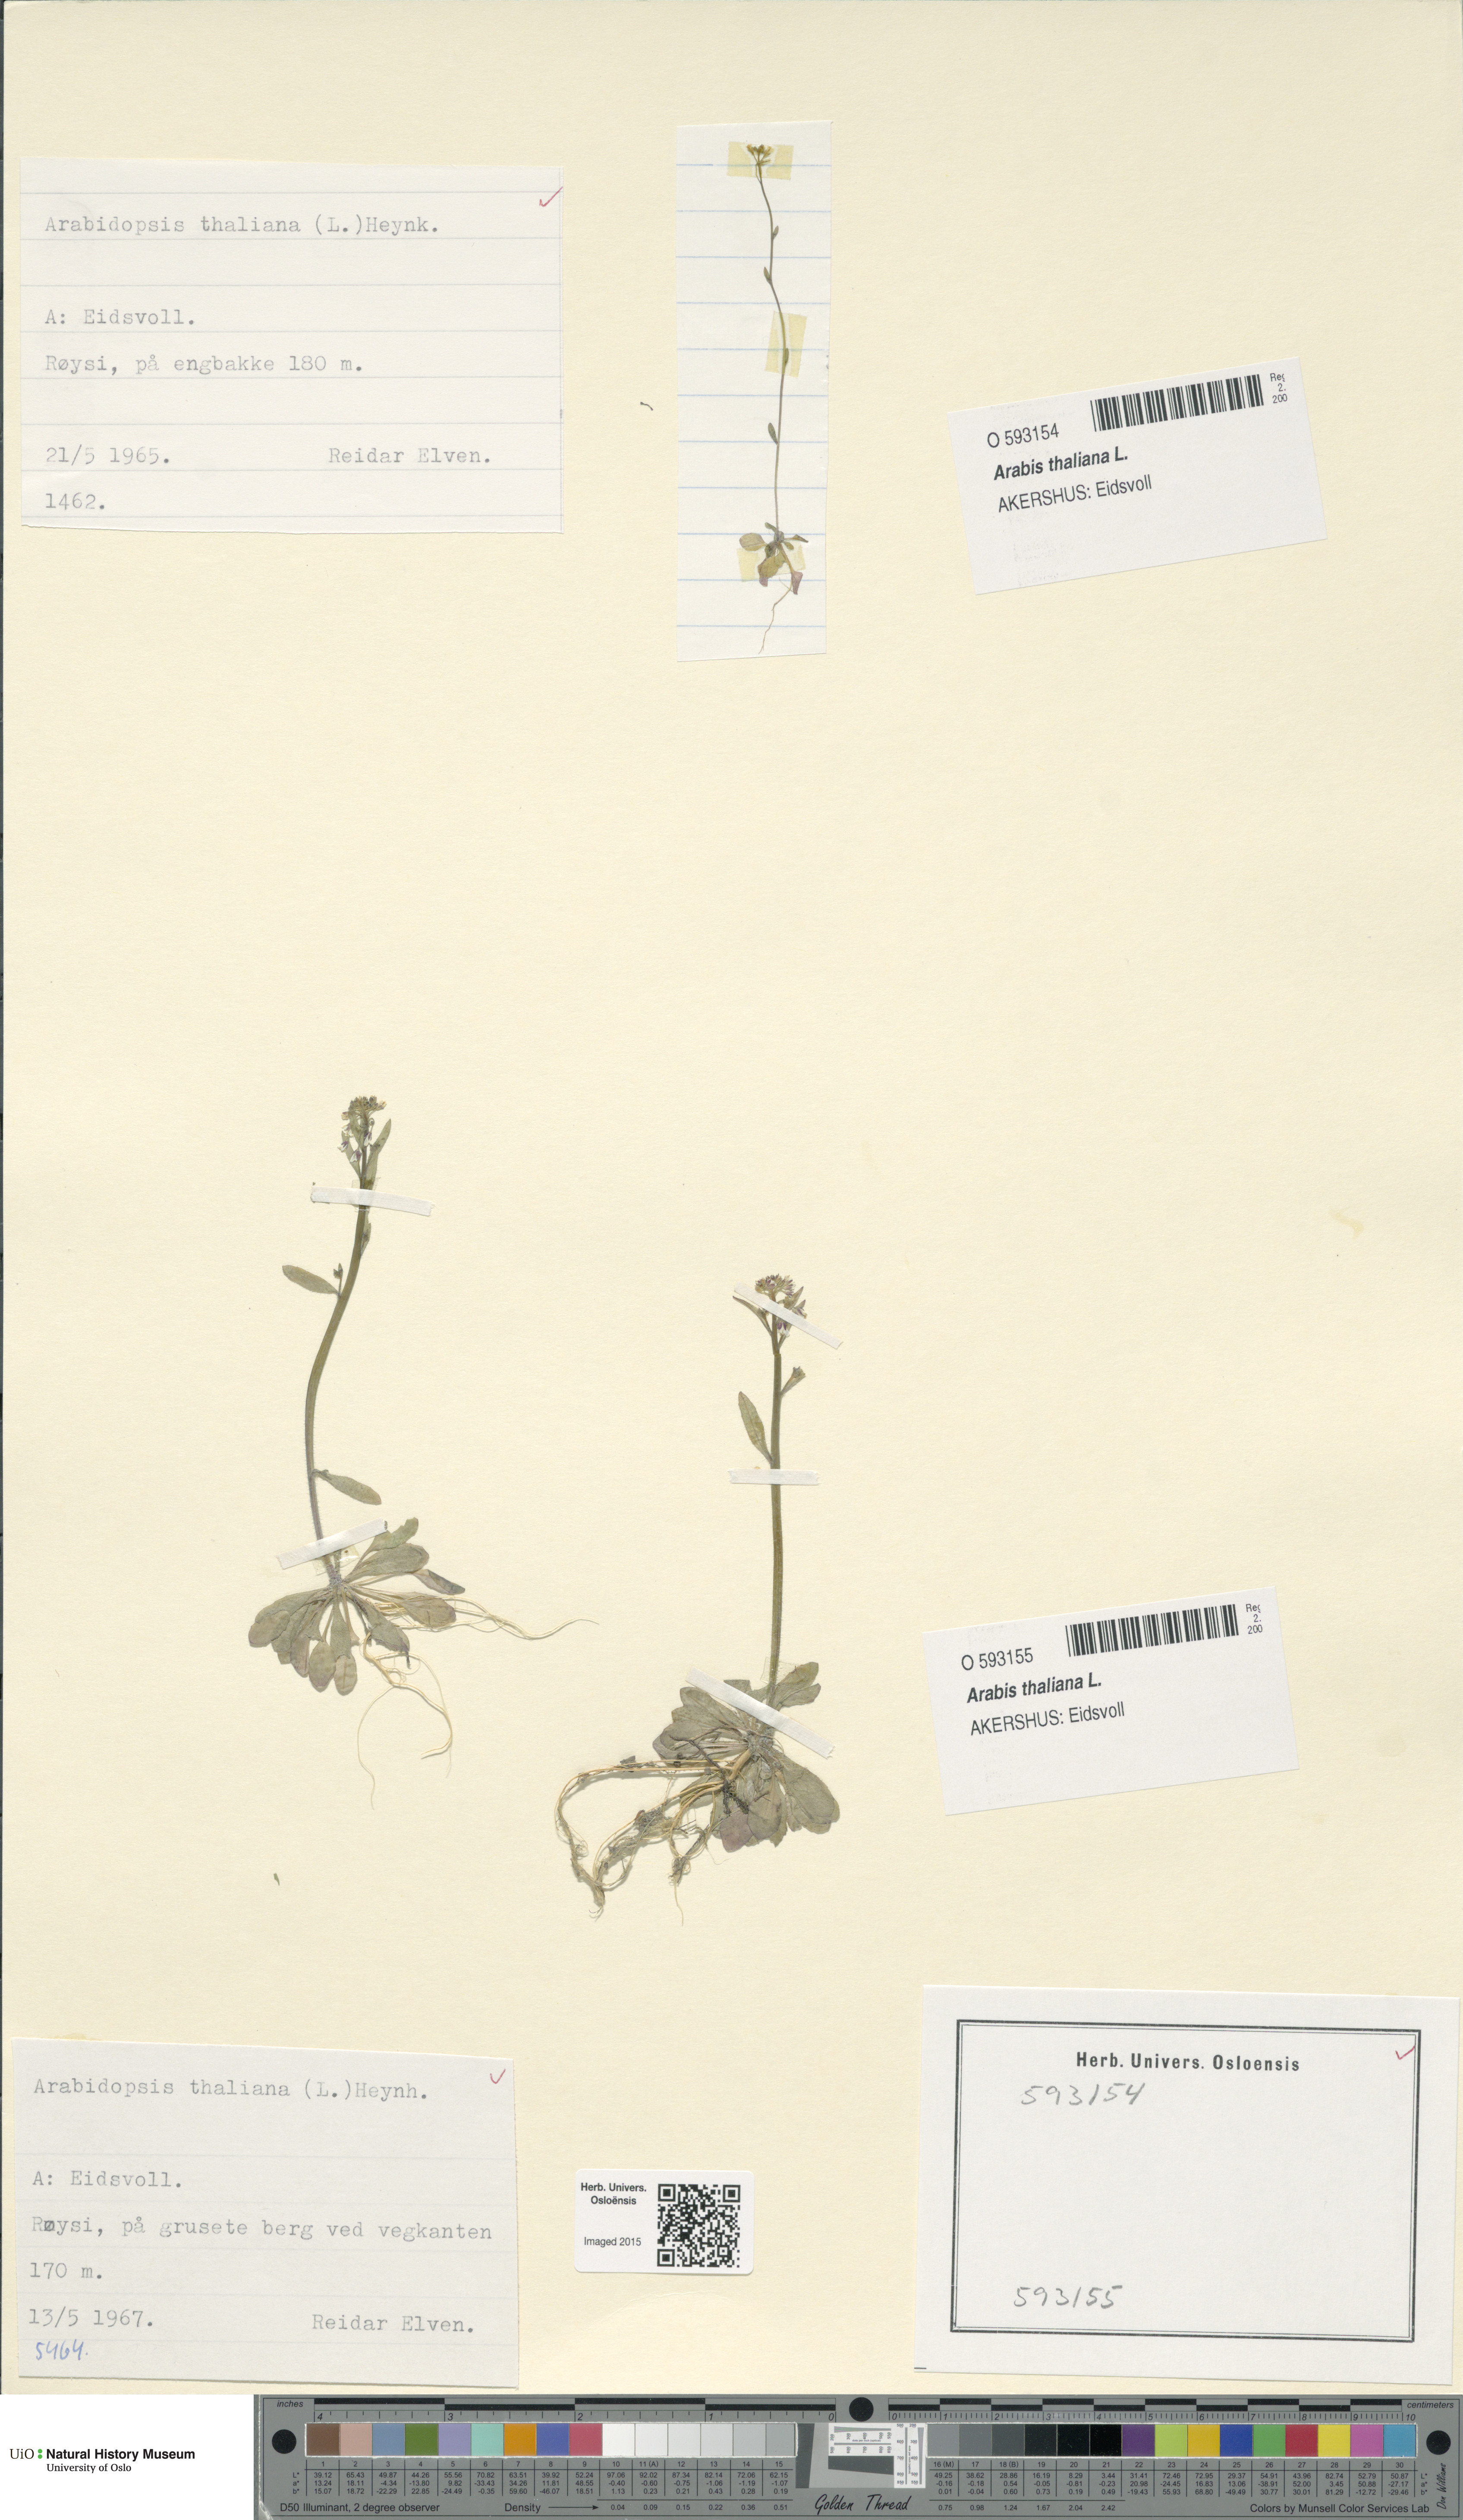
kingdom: Plantae
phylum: Tracheophyta
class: Magnoliopsida
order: Brassicales
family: Brassicaceae
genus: Arabidopsis
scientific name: Arabidopsis thaliana
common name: Thale cress
